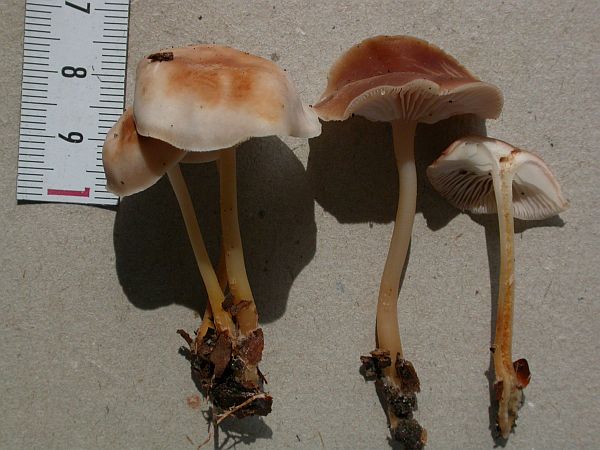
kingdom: Fungi
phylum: Basidiomycota
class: Agaricomycetes
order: Agaricales
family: Omphalotaceae
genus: Gymnopus
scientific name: Gymnopus ocior
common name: mørk fladhat
